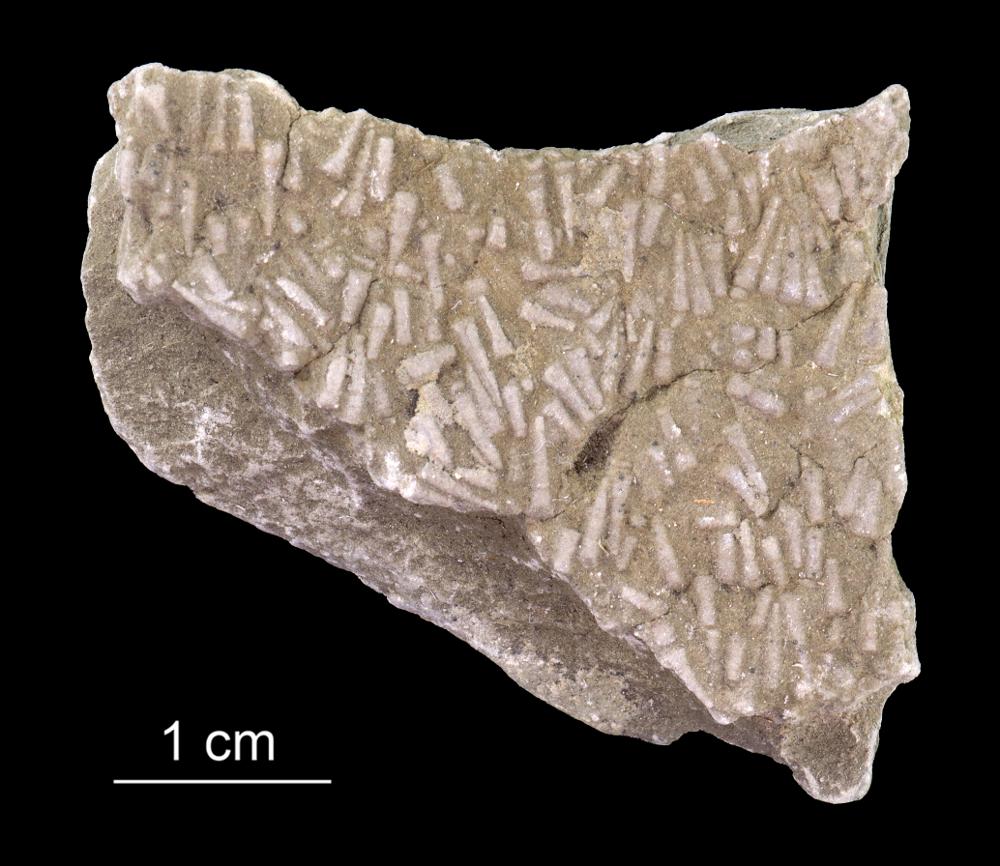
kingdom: Animalia
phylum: Annelida
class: Polychaeta
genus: Volborthella
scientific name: Volborthella tenuis
